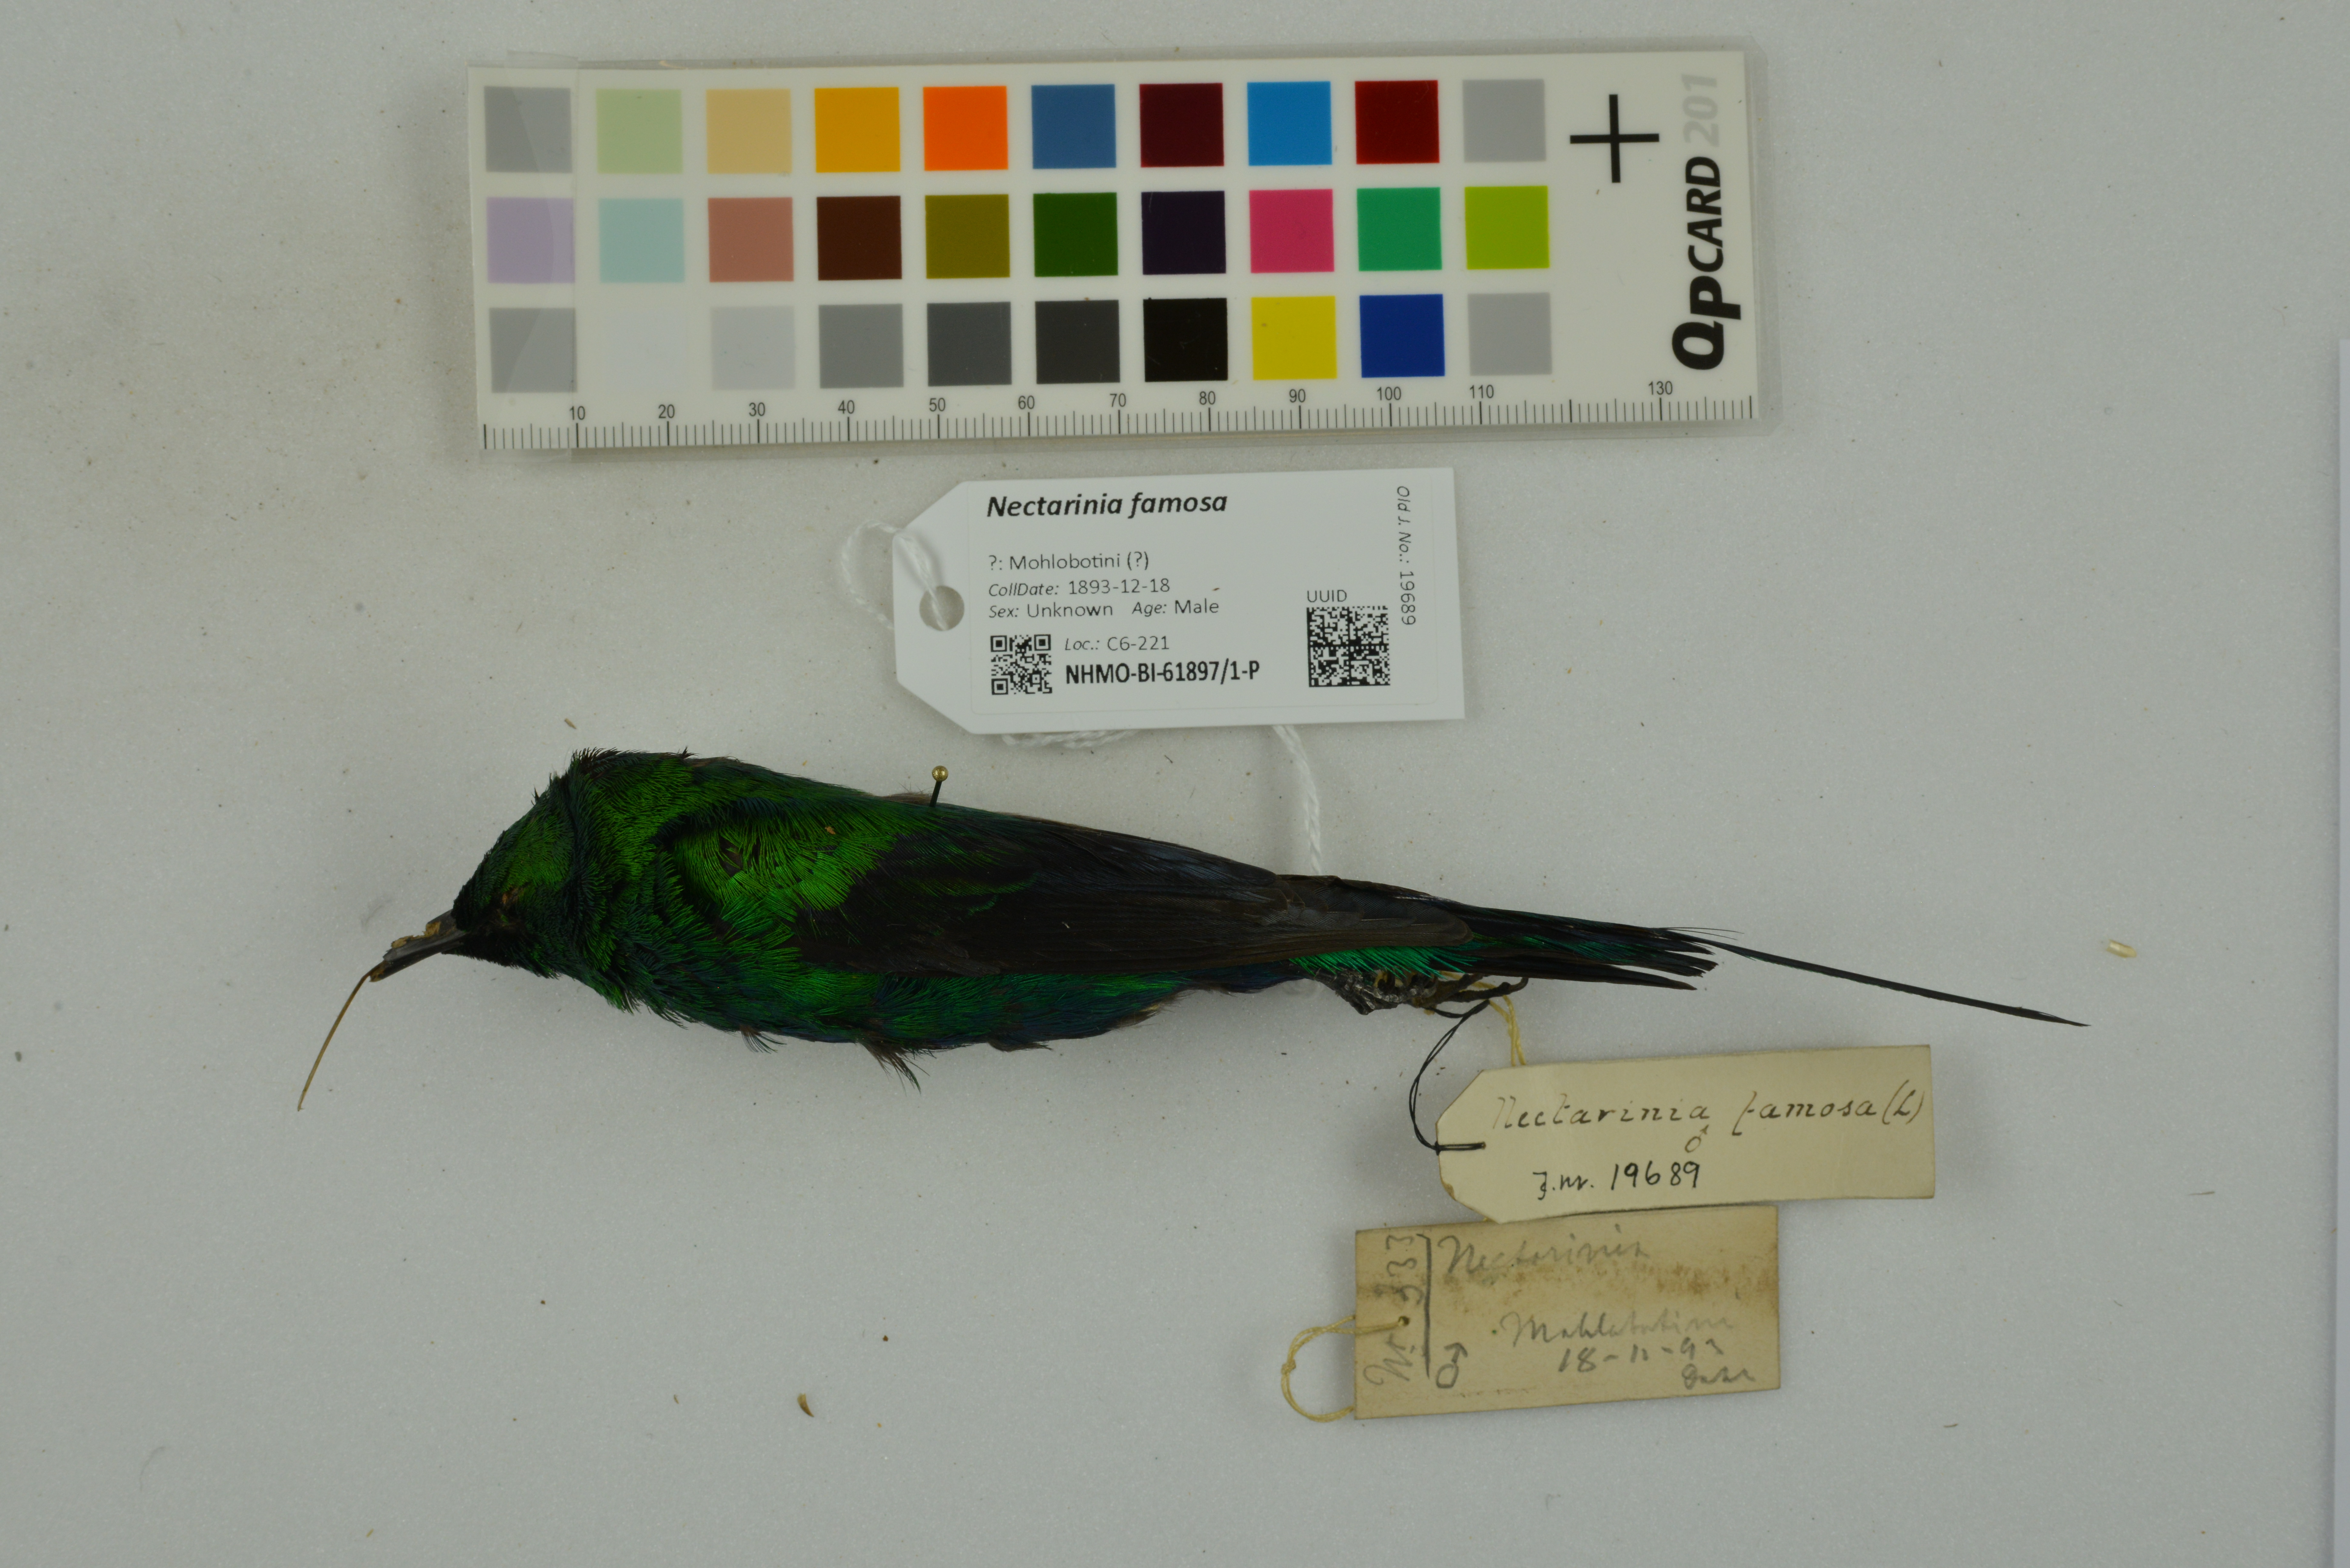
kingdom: Animalia
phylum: Chordata
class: Aves
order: Passeriformes
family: Nectariniidae
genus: Nectarinia
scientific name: Nectarinia famosa
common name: Malachite sunbird
